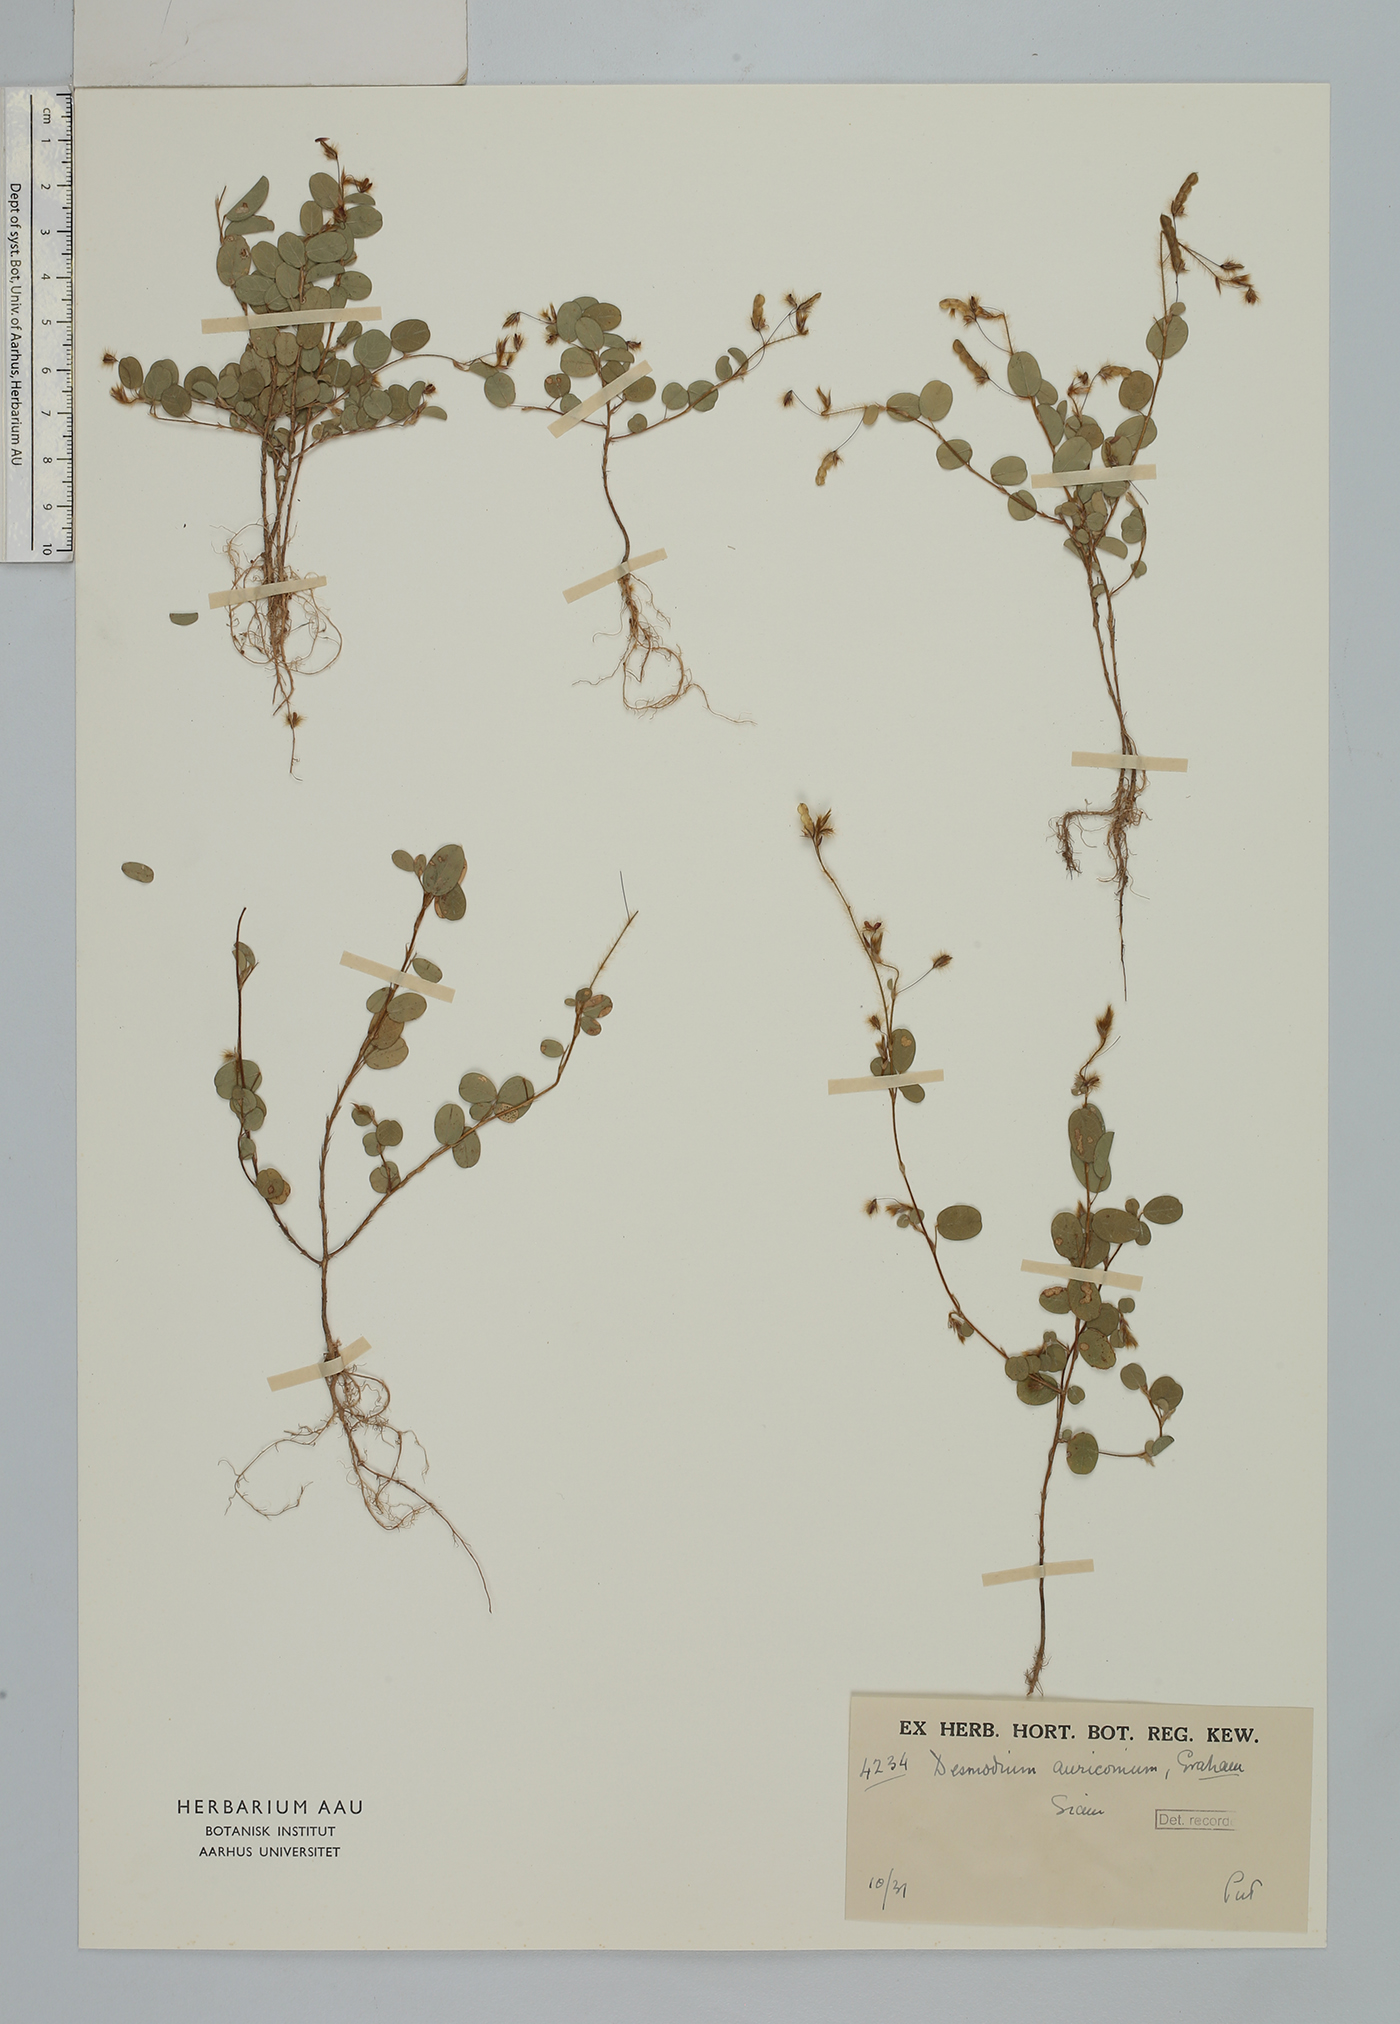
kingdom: Plantae
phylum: Tracheophyta
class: Magnoliopsida
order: Fabales
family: Fabaceae
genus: Grona
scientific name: Grona auricoma
